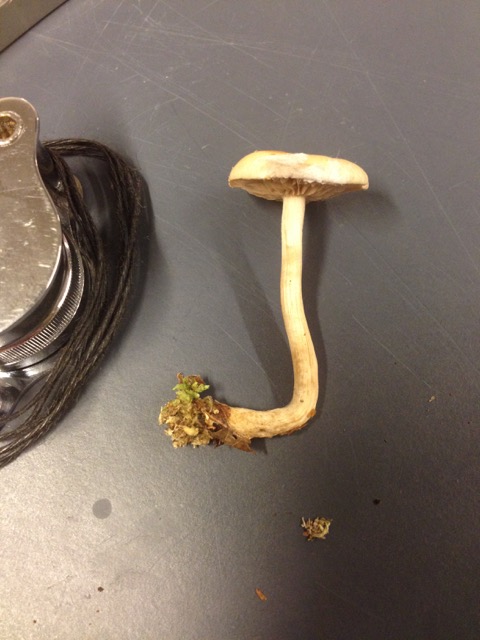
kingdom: Fungi
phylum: Basidiomycota
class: Agaricomycetes
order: Agaricales
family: Hymenogastraceae
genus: Hebeloma
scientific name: Hebeloma
